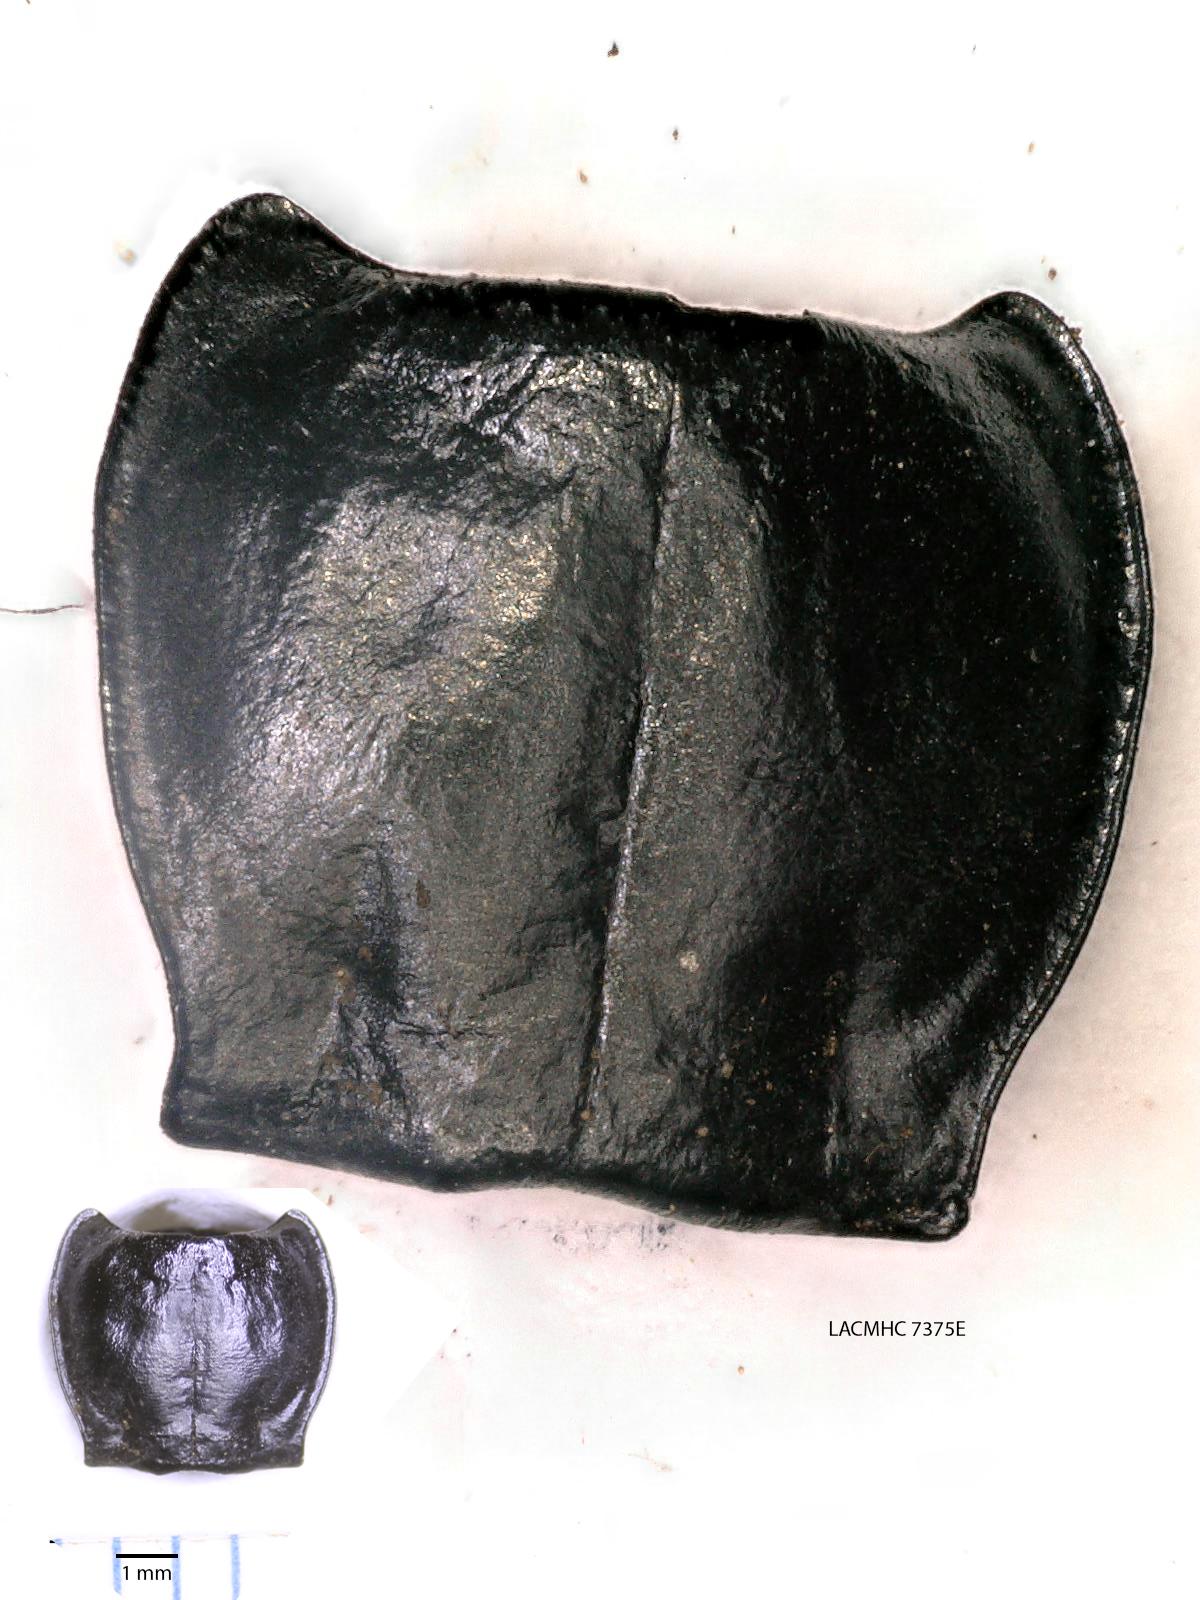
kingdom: Animalia
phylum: Arthropoda
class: Insecta
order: Coleoptera
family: Carabidae
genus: Pterostichus
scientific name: Pterostichus illustris
